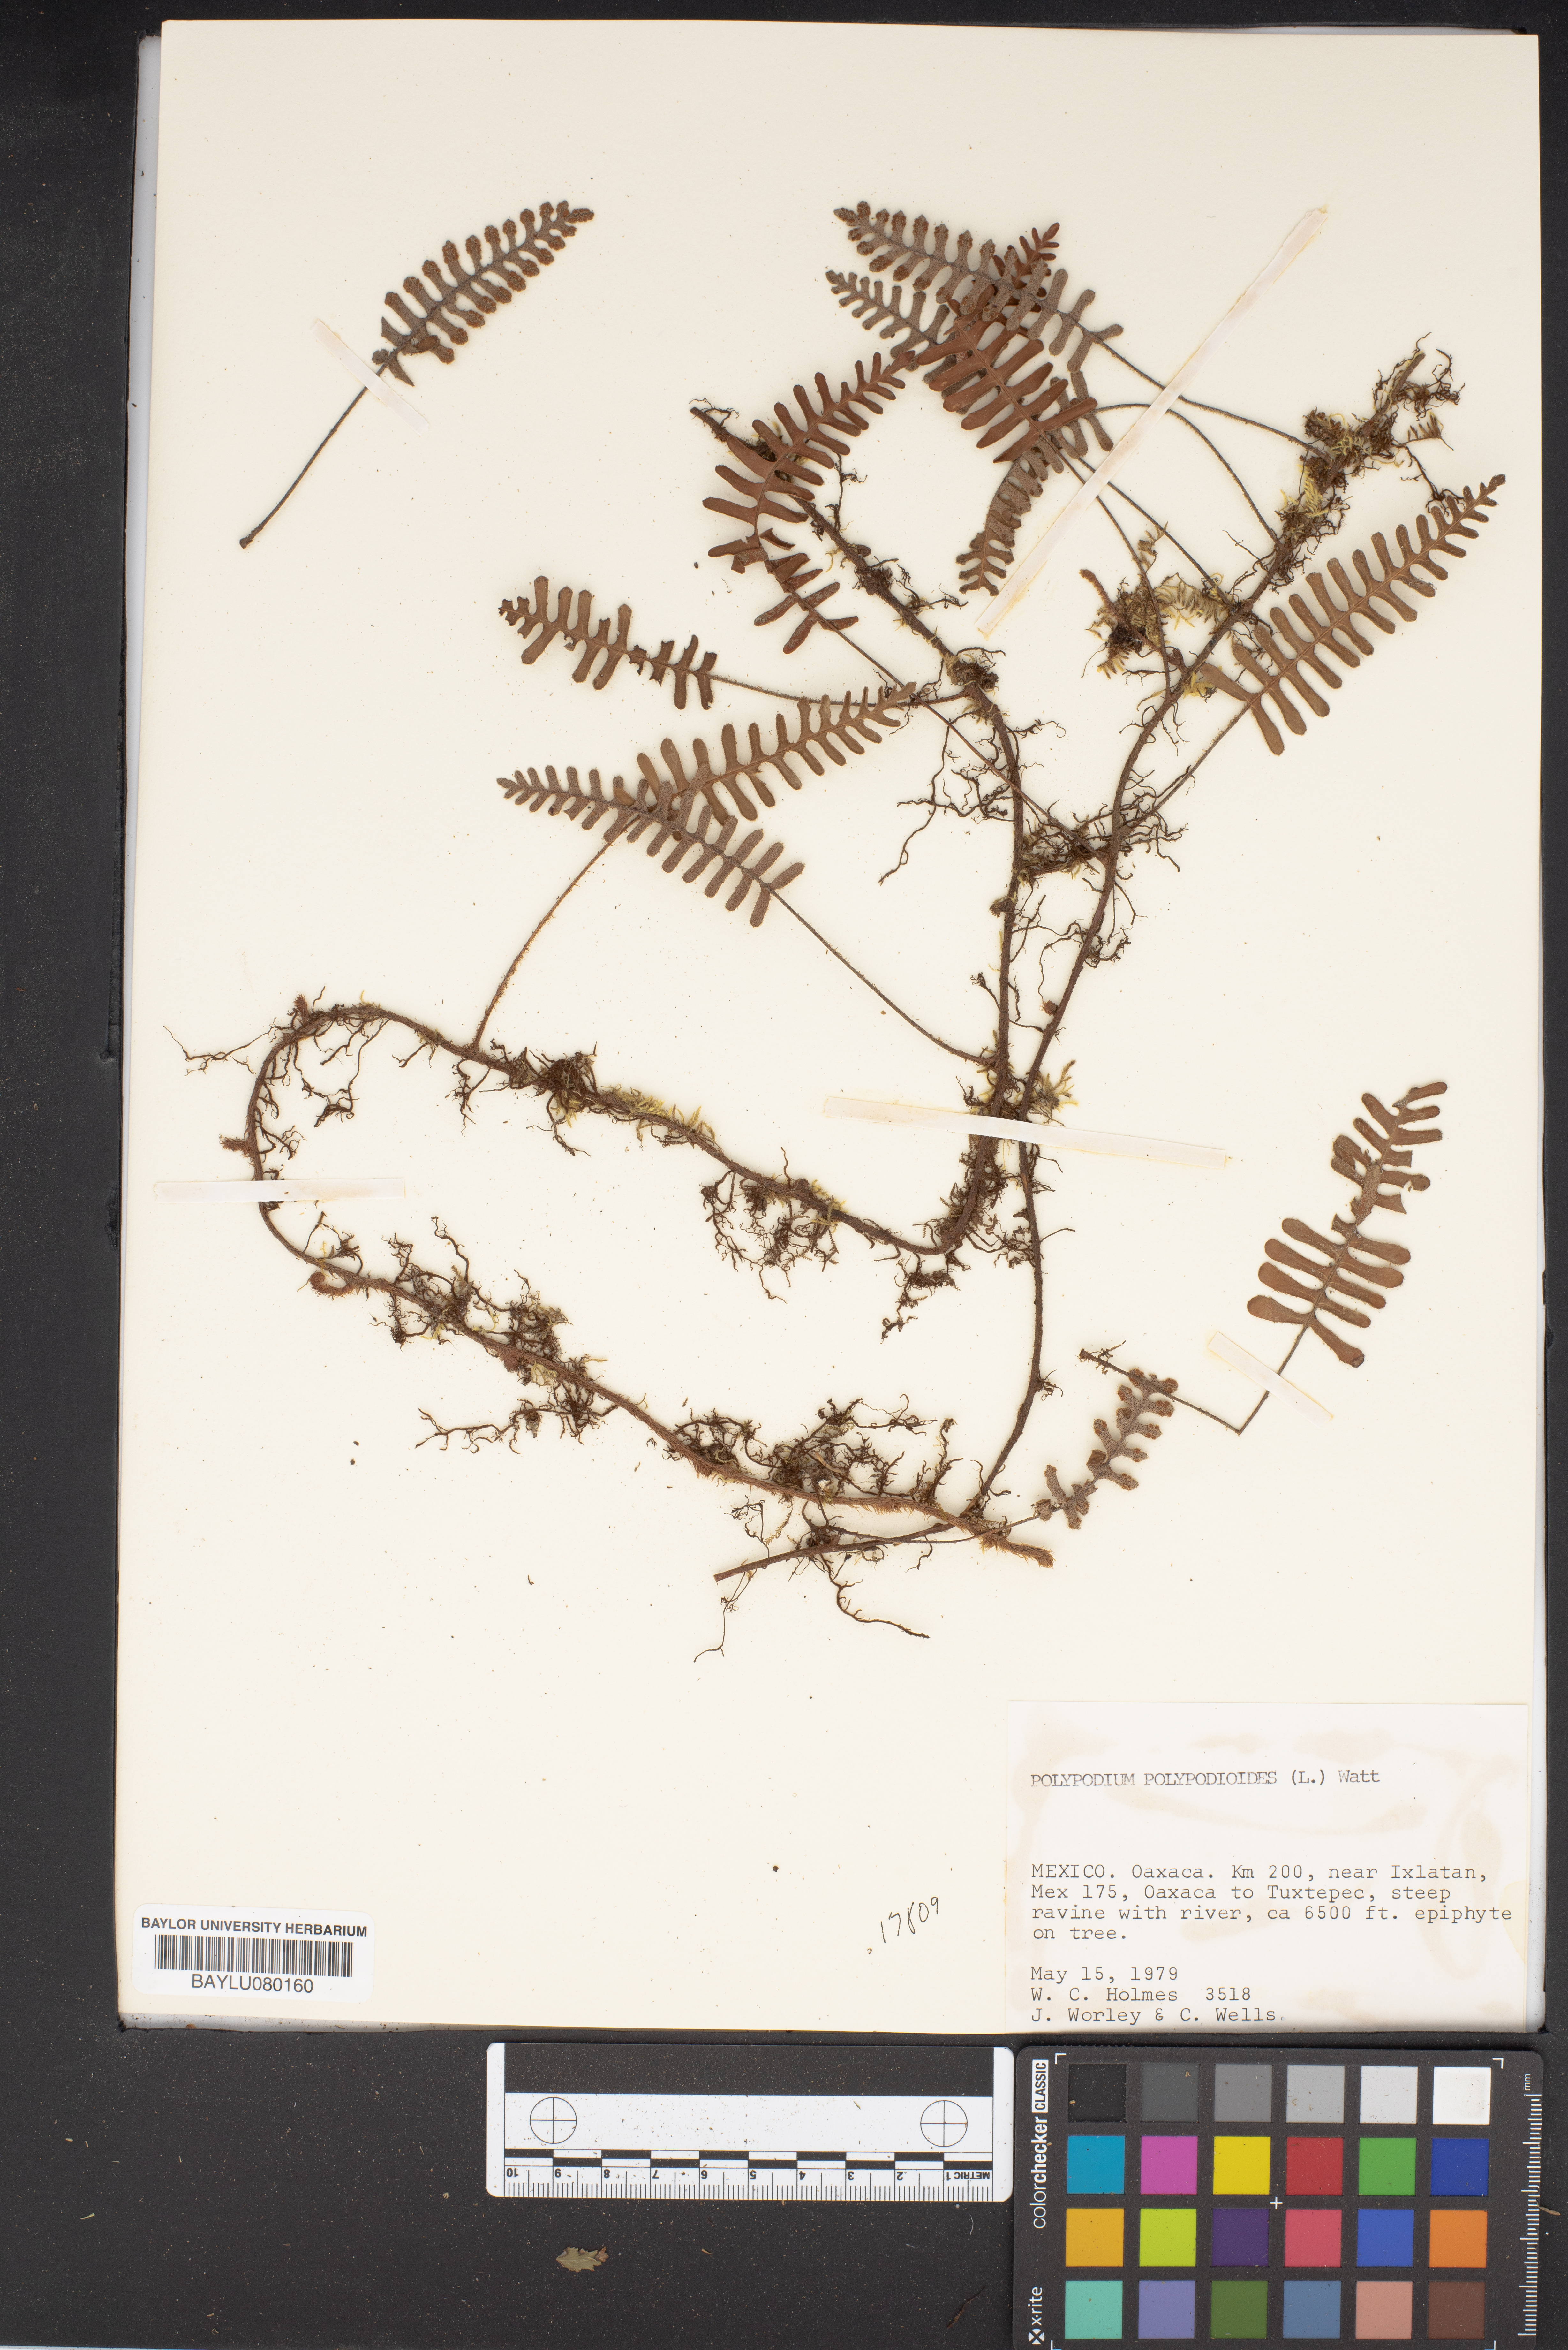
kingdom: Plantae
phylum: Tracheophyta
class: Polypodiopsida
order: Polypodiales
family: Polypodiaceae
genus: Pleopeltis
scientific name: Pleopeltis polypodioides
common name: Resurrection fern
